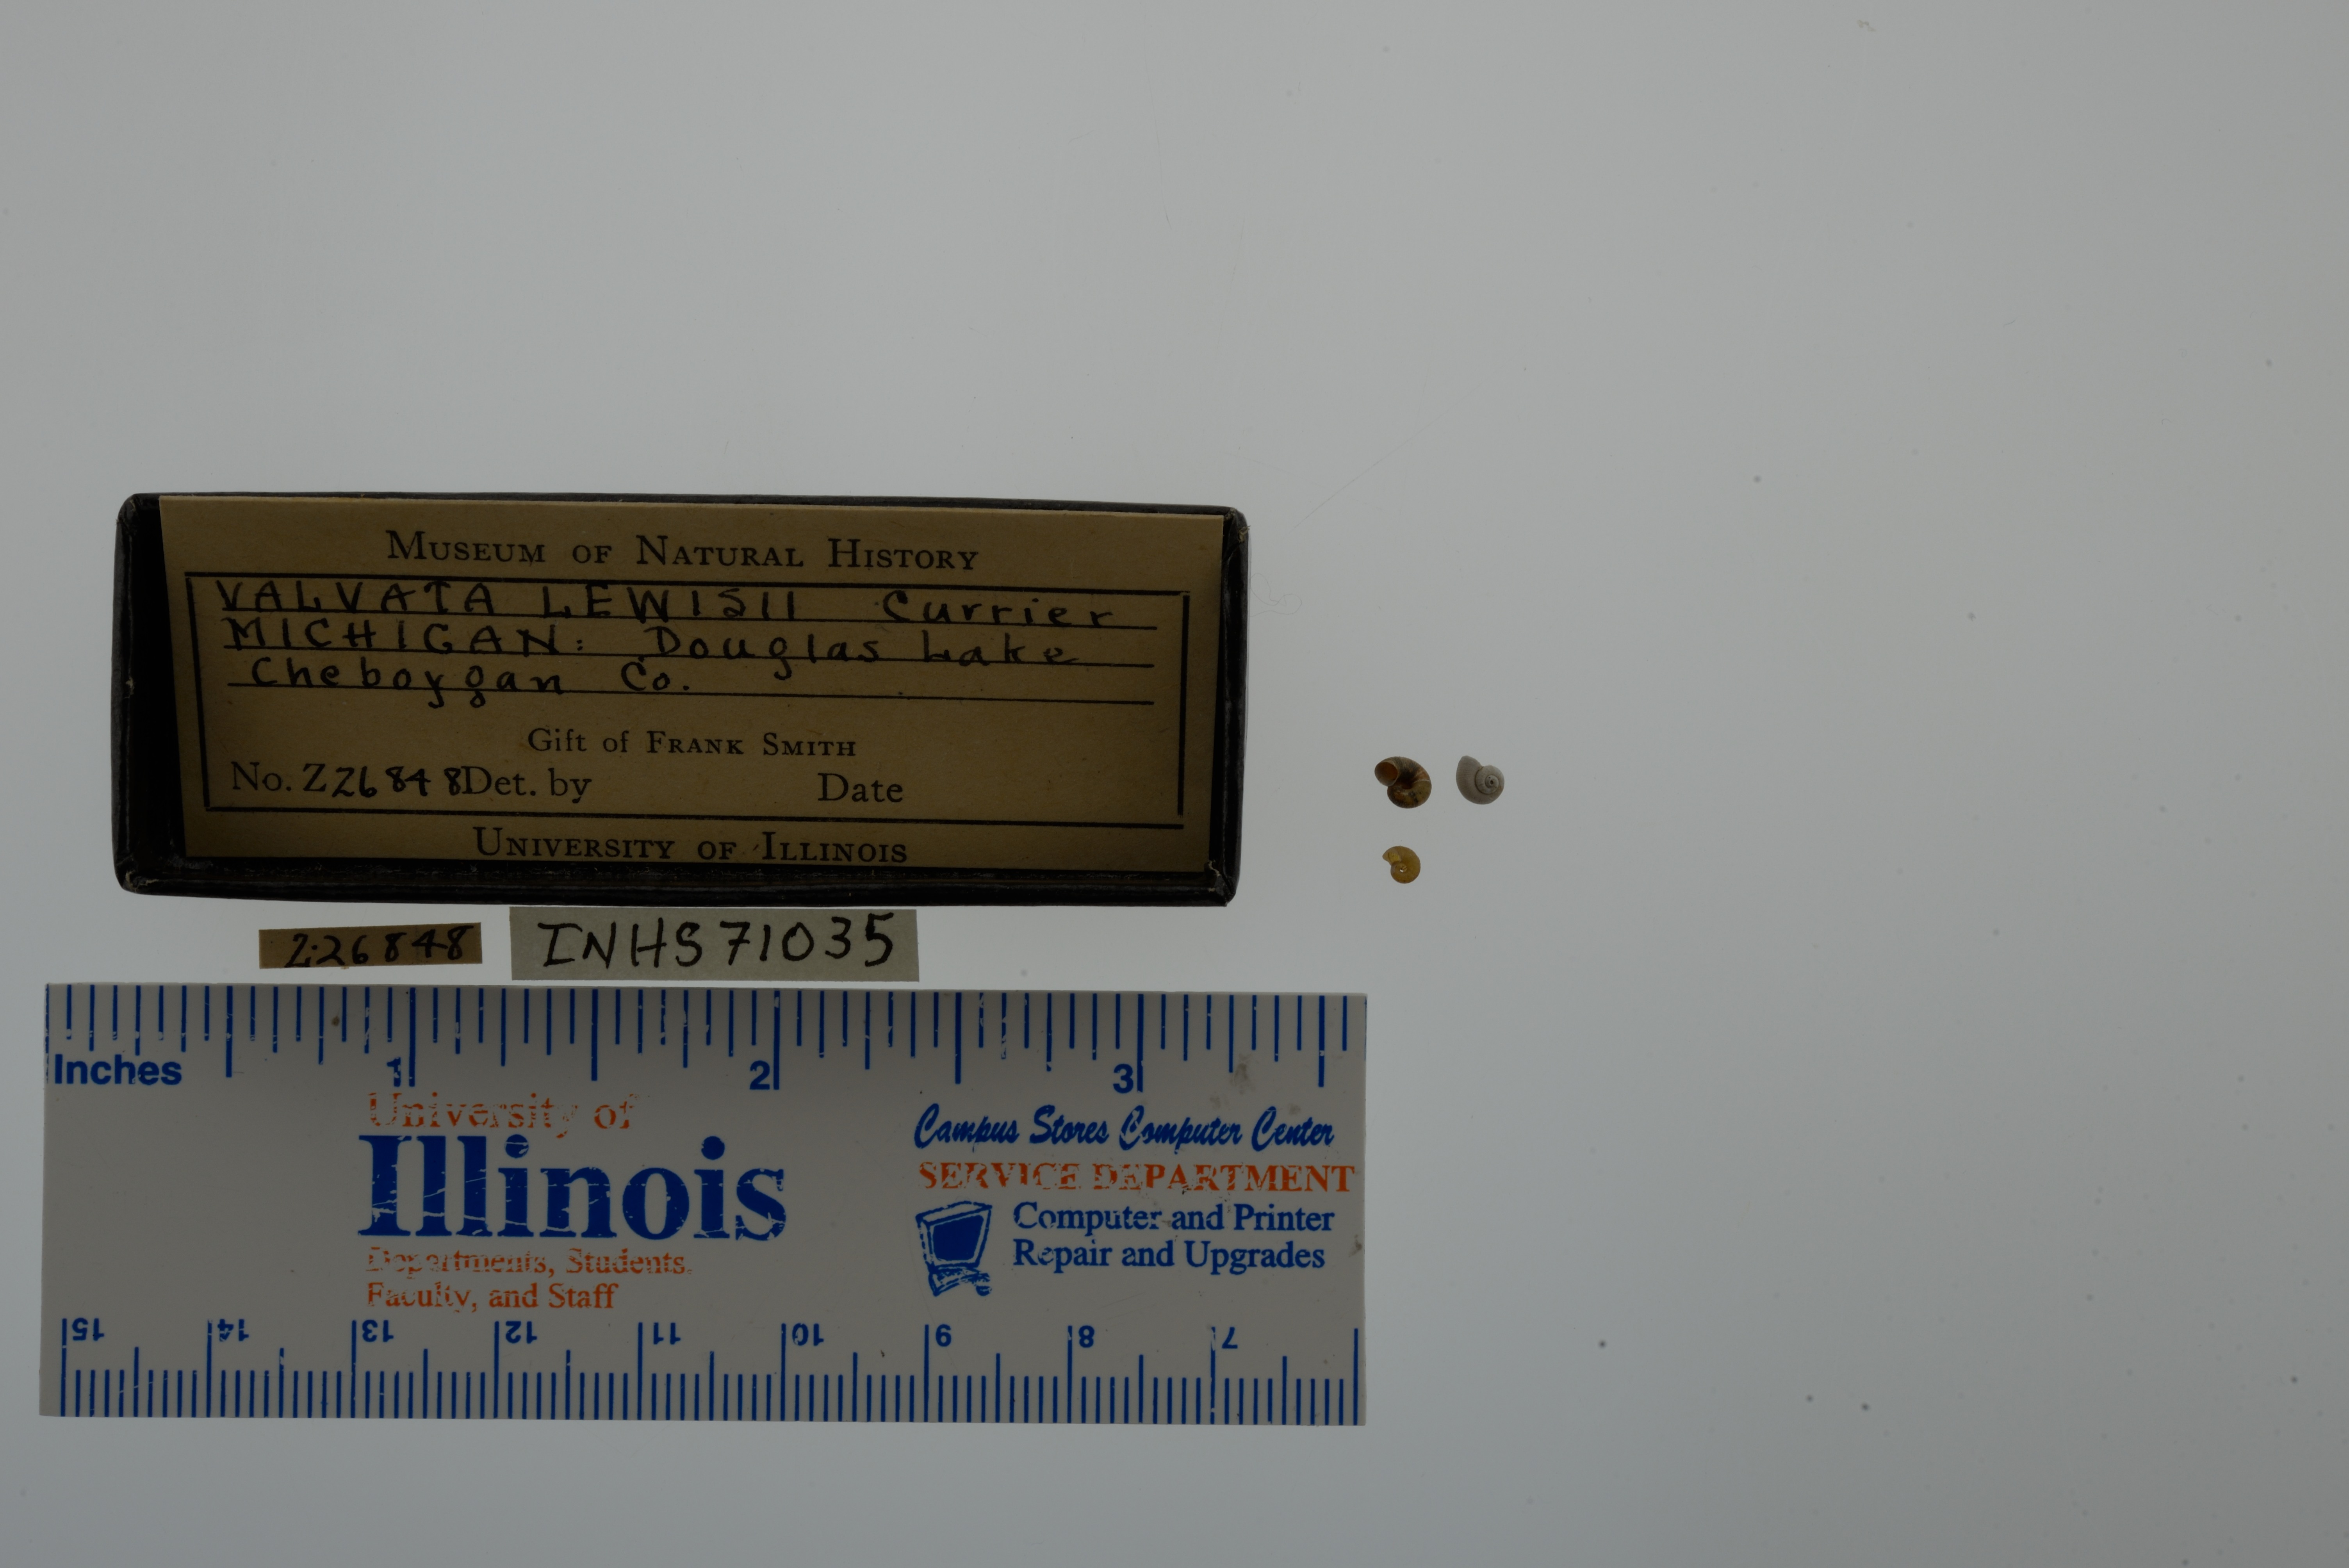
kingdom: Animalia
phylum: Mollusca
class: Gastropoda
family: Valvatidae
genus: Valvata
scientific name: Valvata lewisi
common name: Fringed valvata
